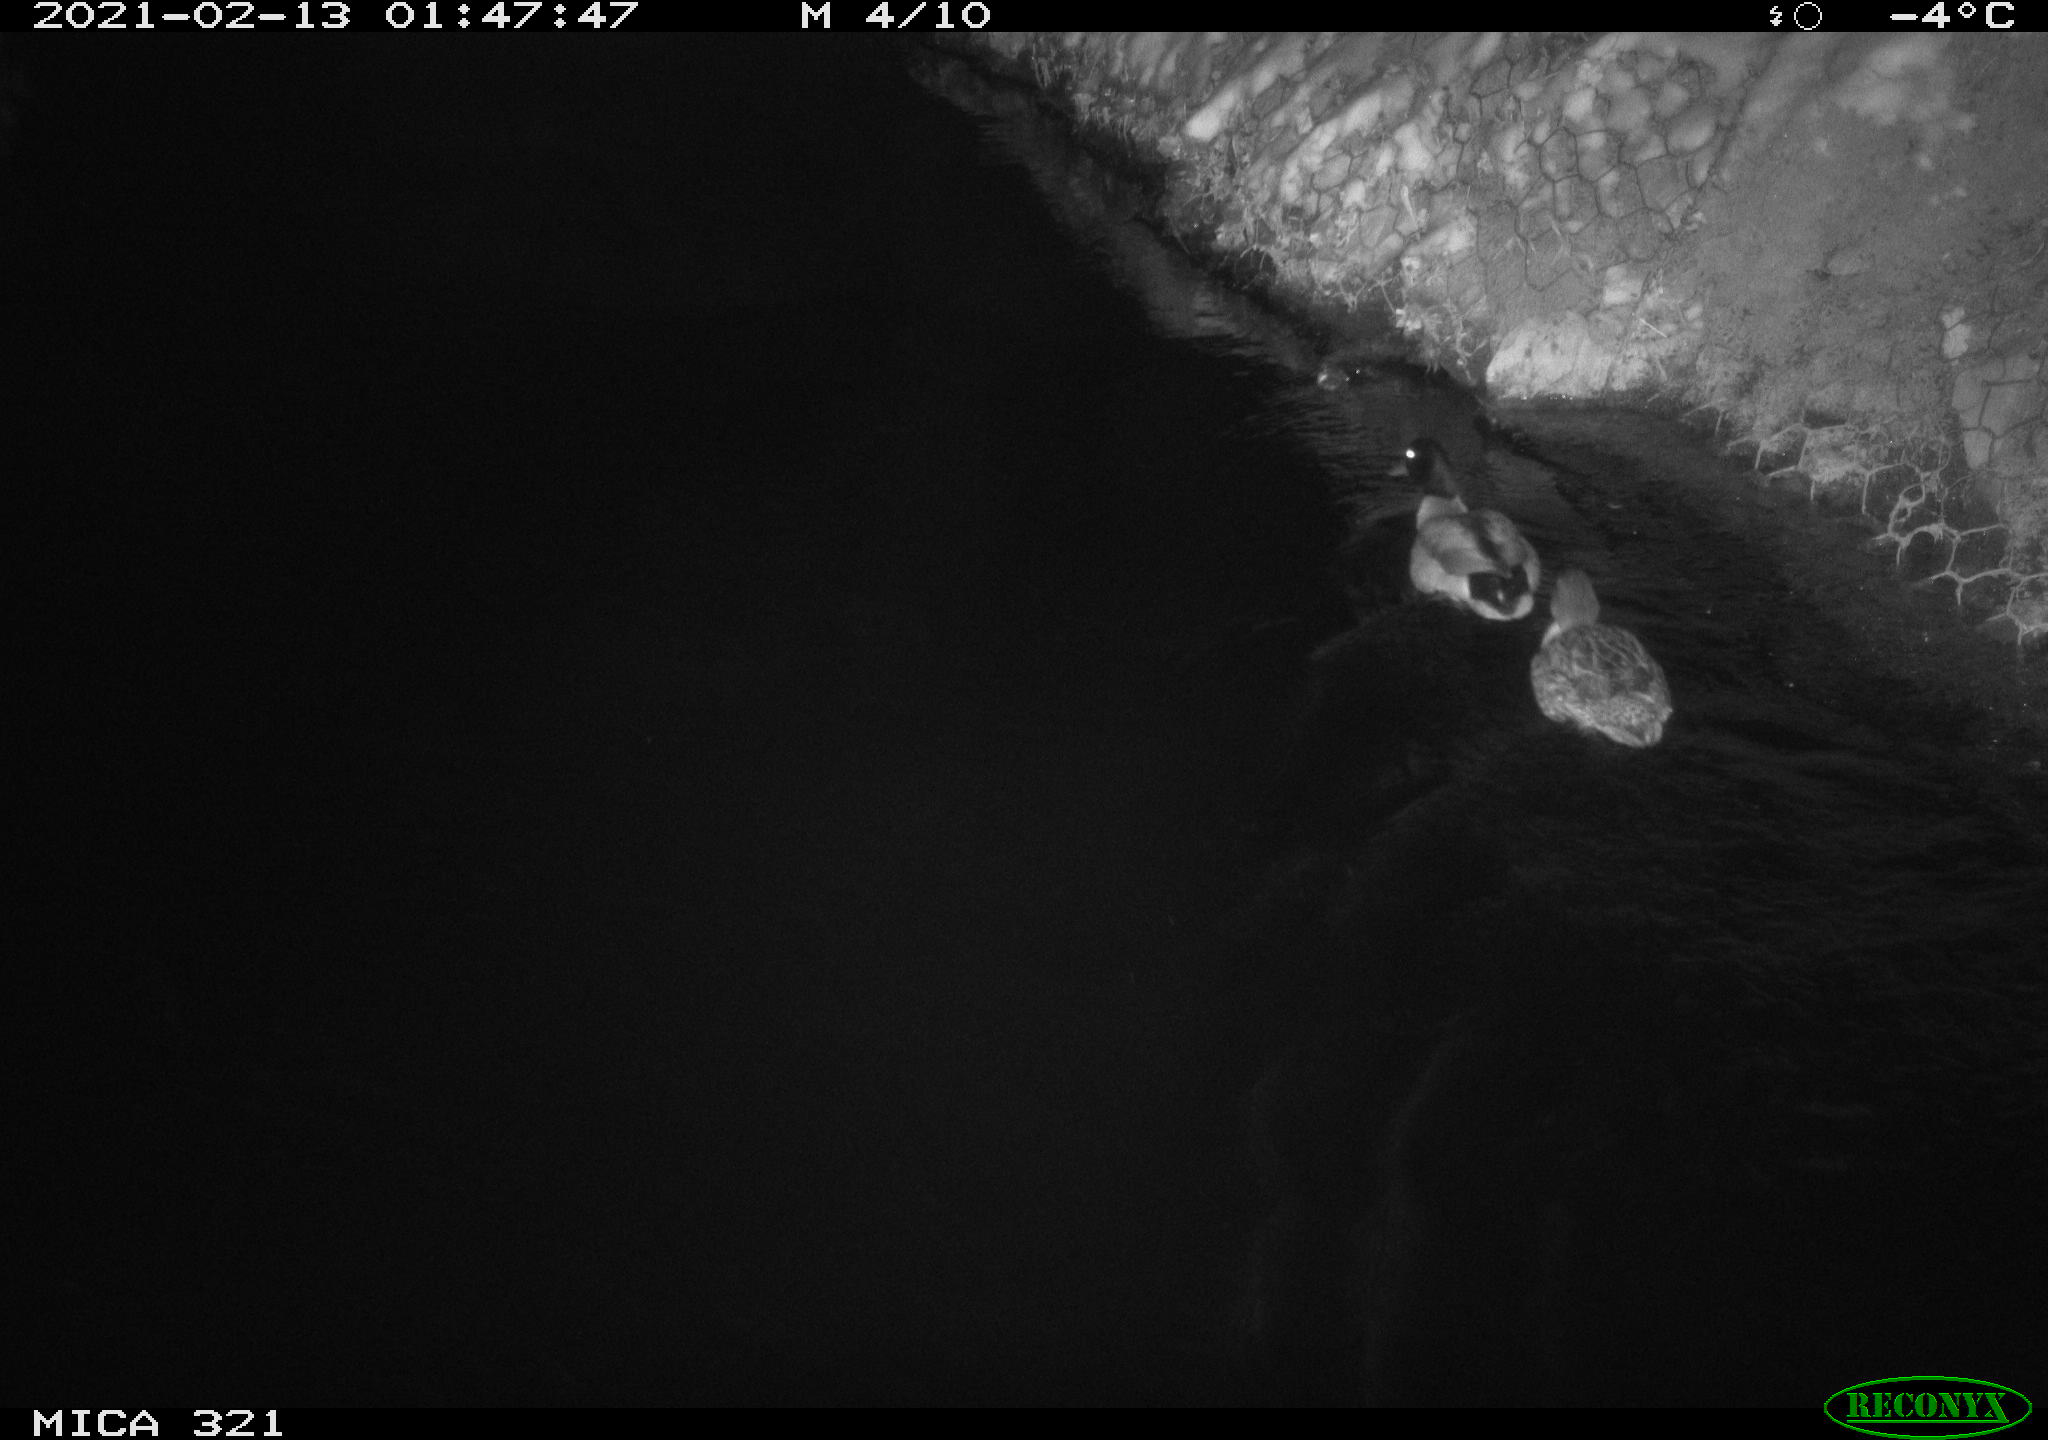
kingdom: Animalia
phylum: Chordata
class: Aves
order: Anseriformes
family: Anatidae
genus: Anas
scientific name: Anas platyrhynchos
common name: Mallard
